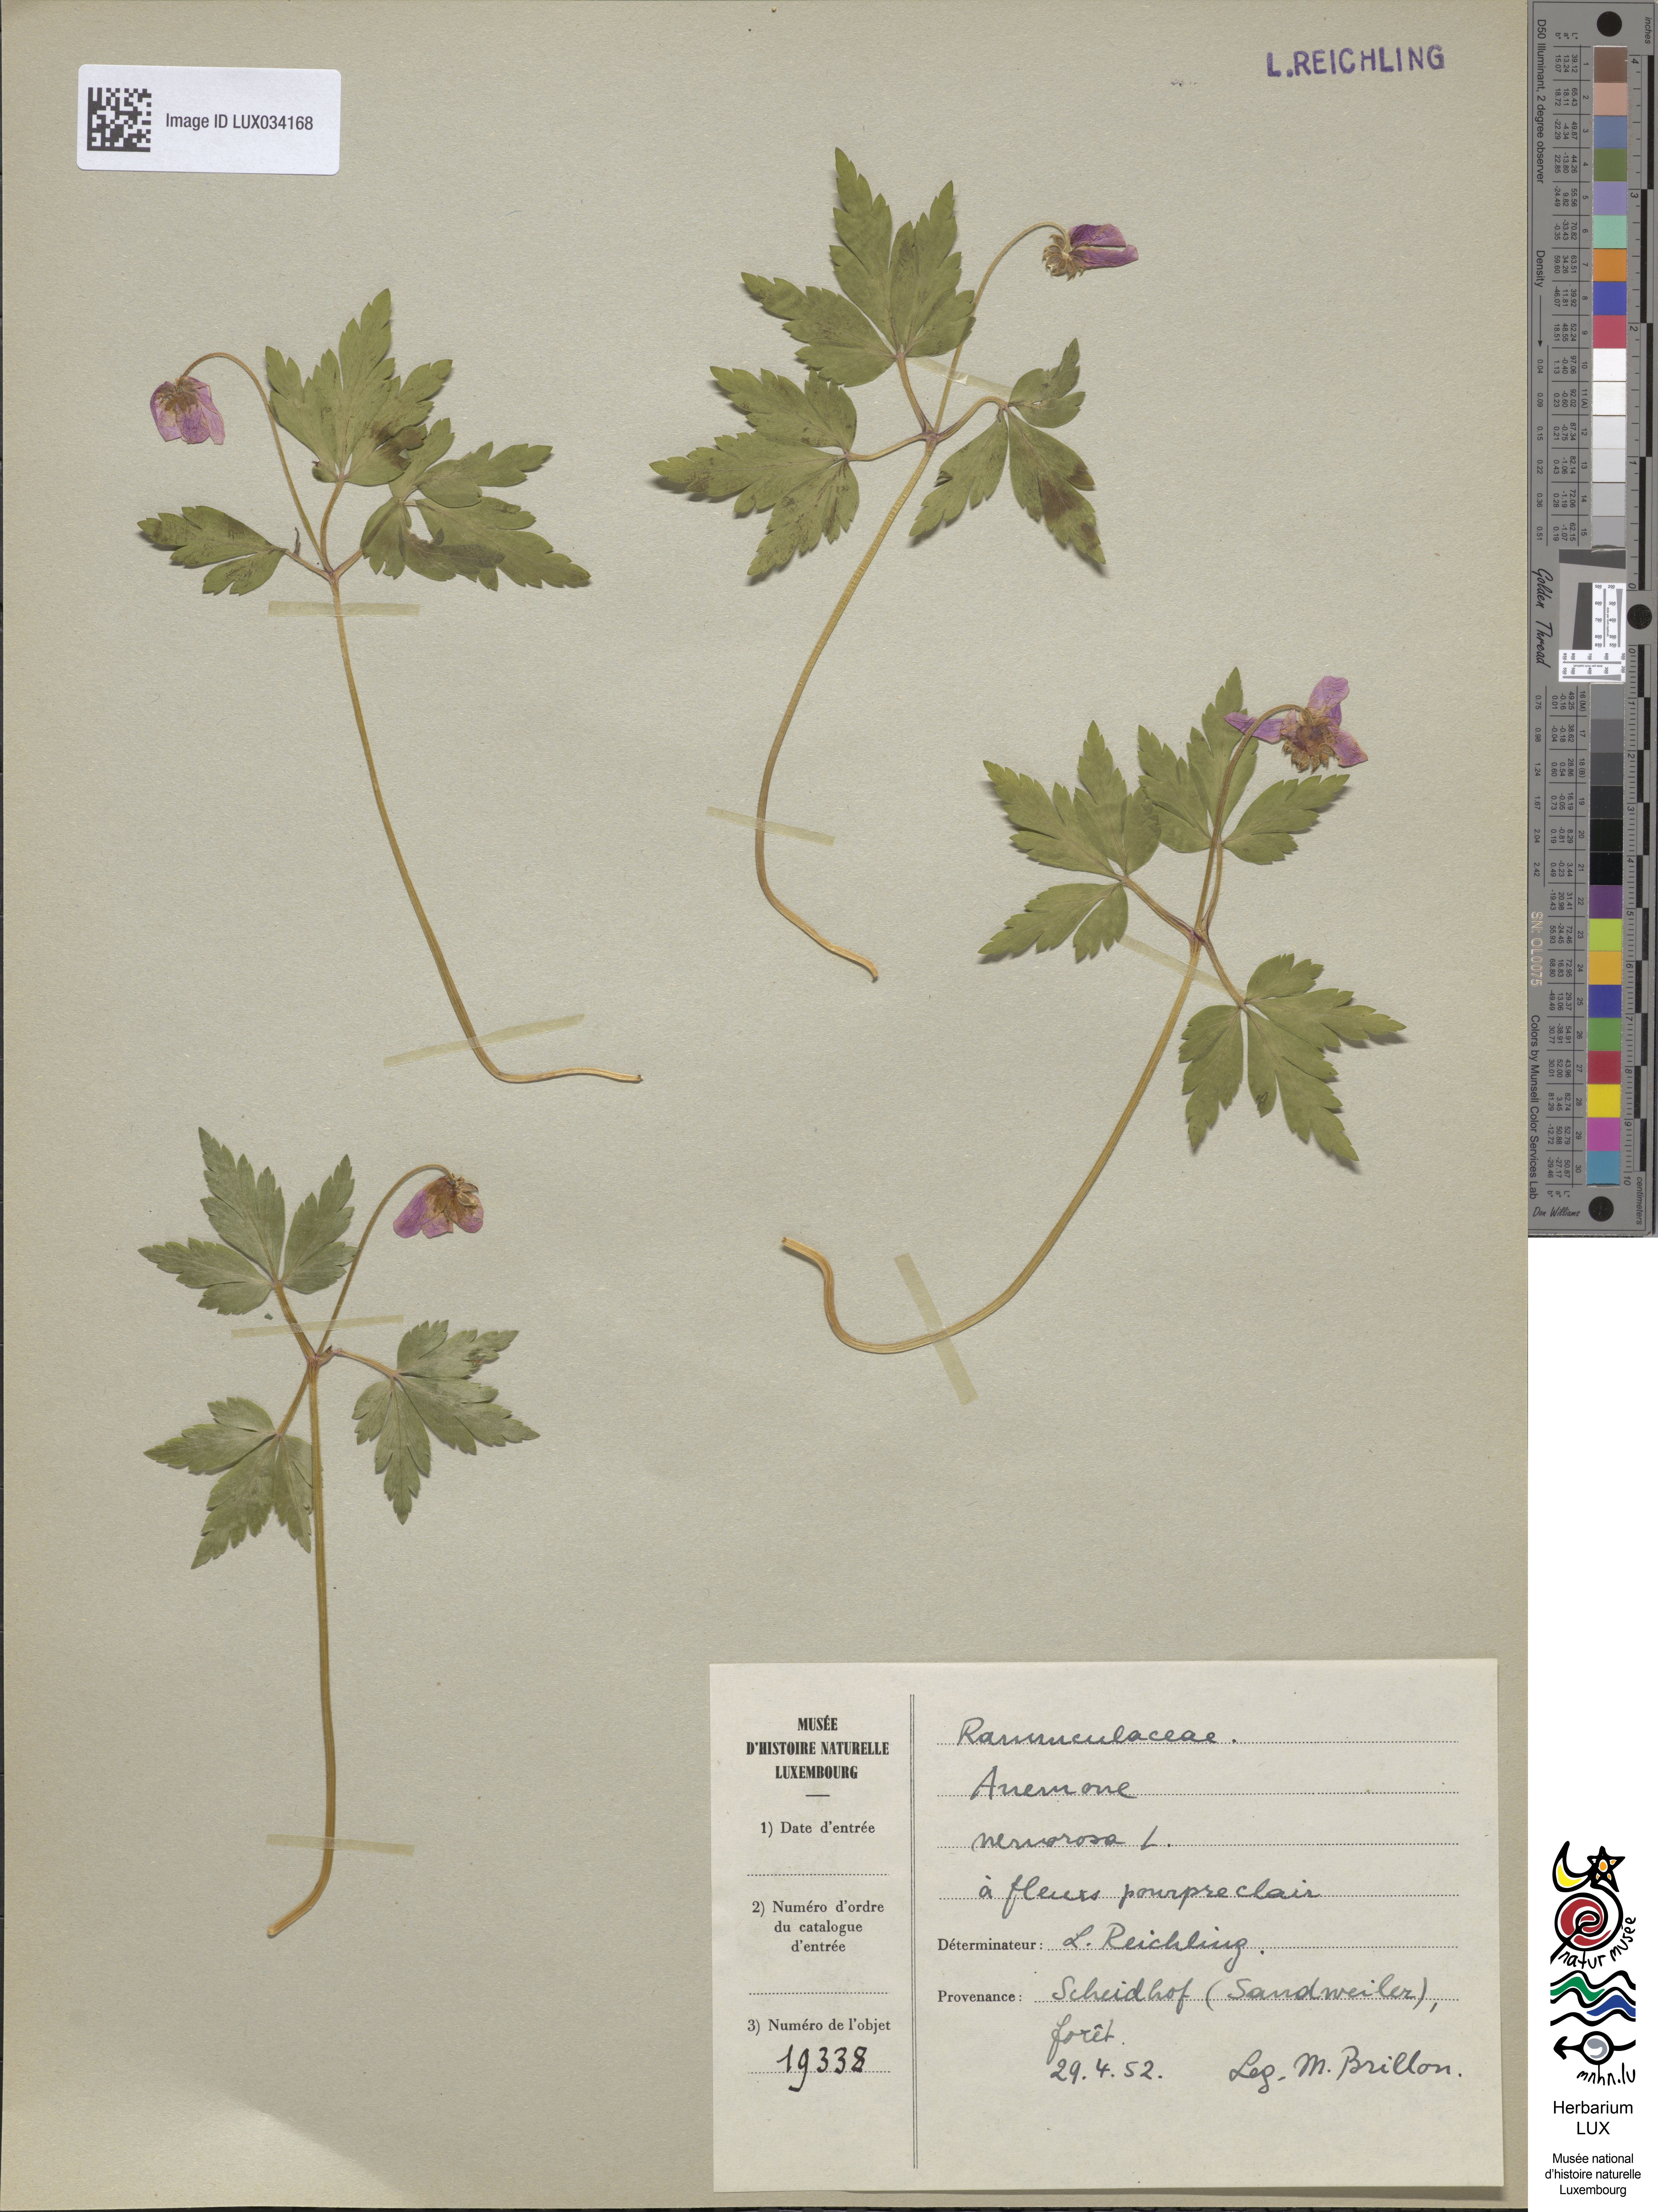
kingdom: Plantae
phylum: Tracheophyta
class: Magnoliopsida
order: Ranunculales
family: Ranunculaceae
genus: Anemone
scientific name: Anemone nemorosa
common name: Wood anemone
